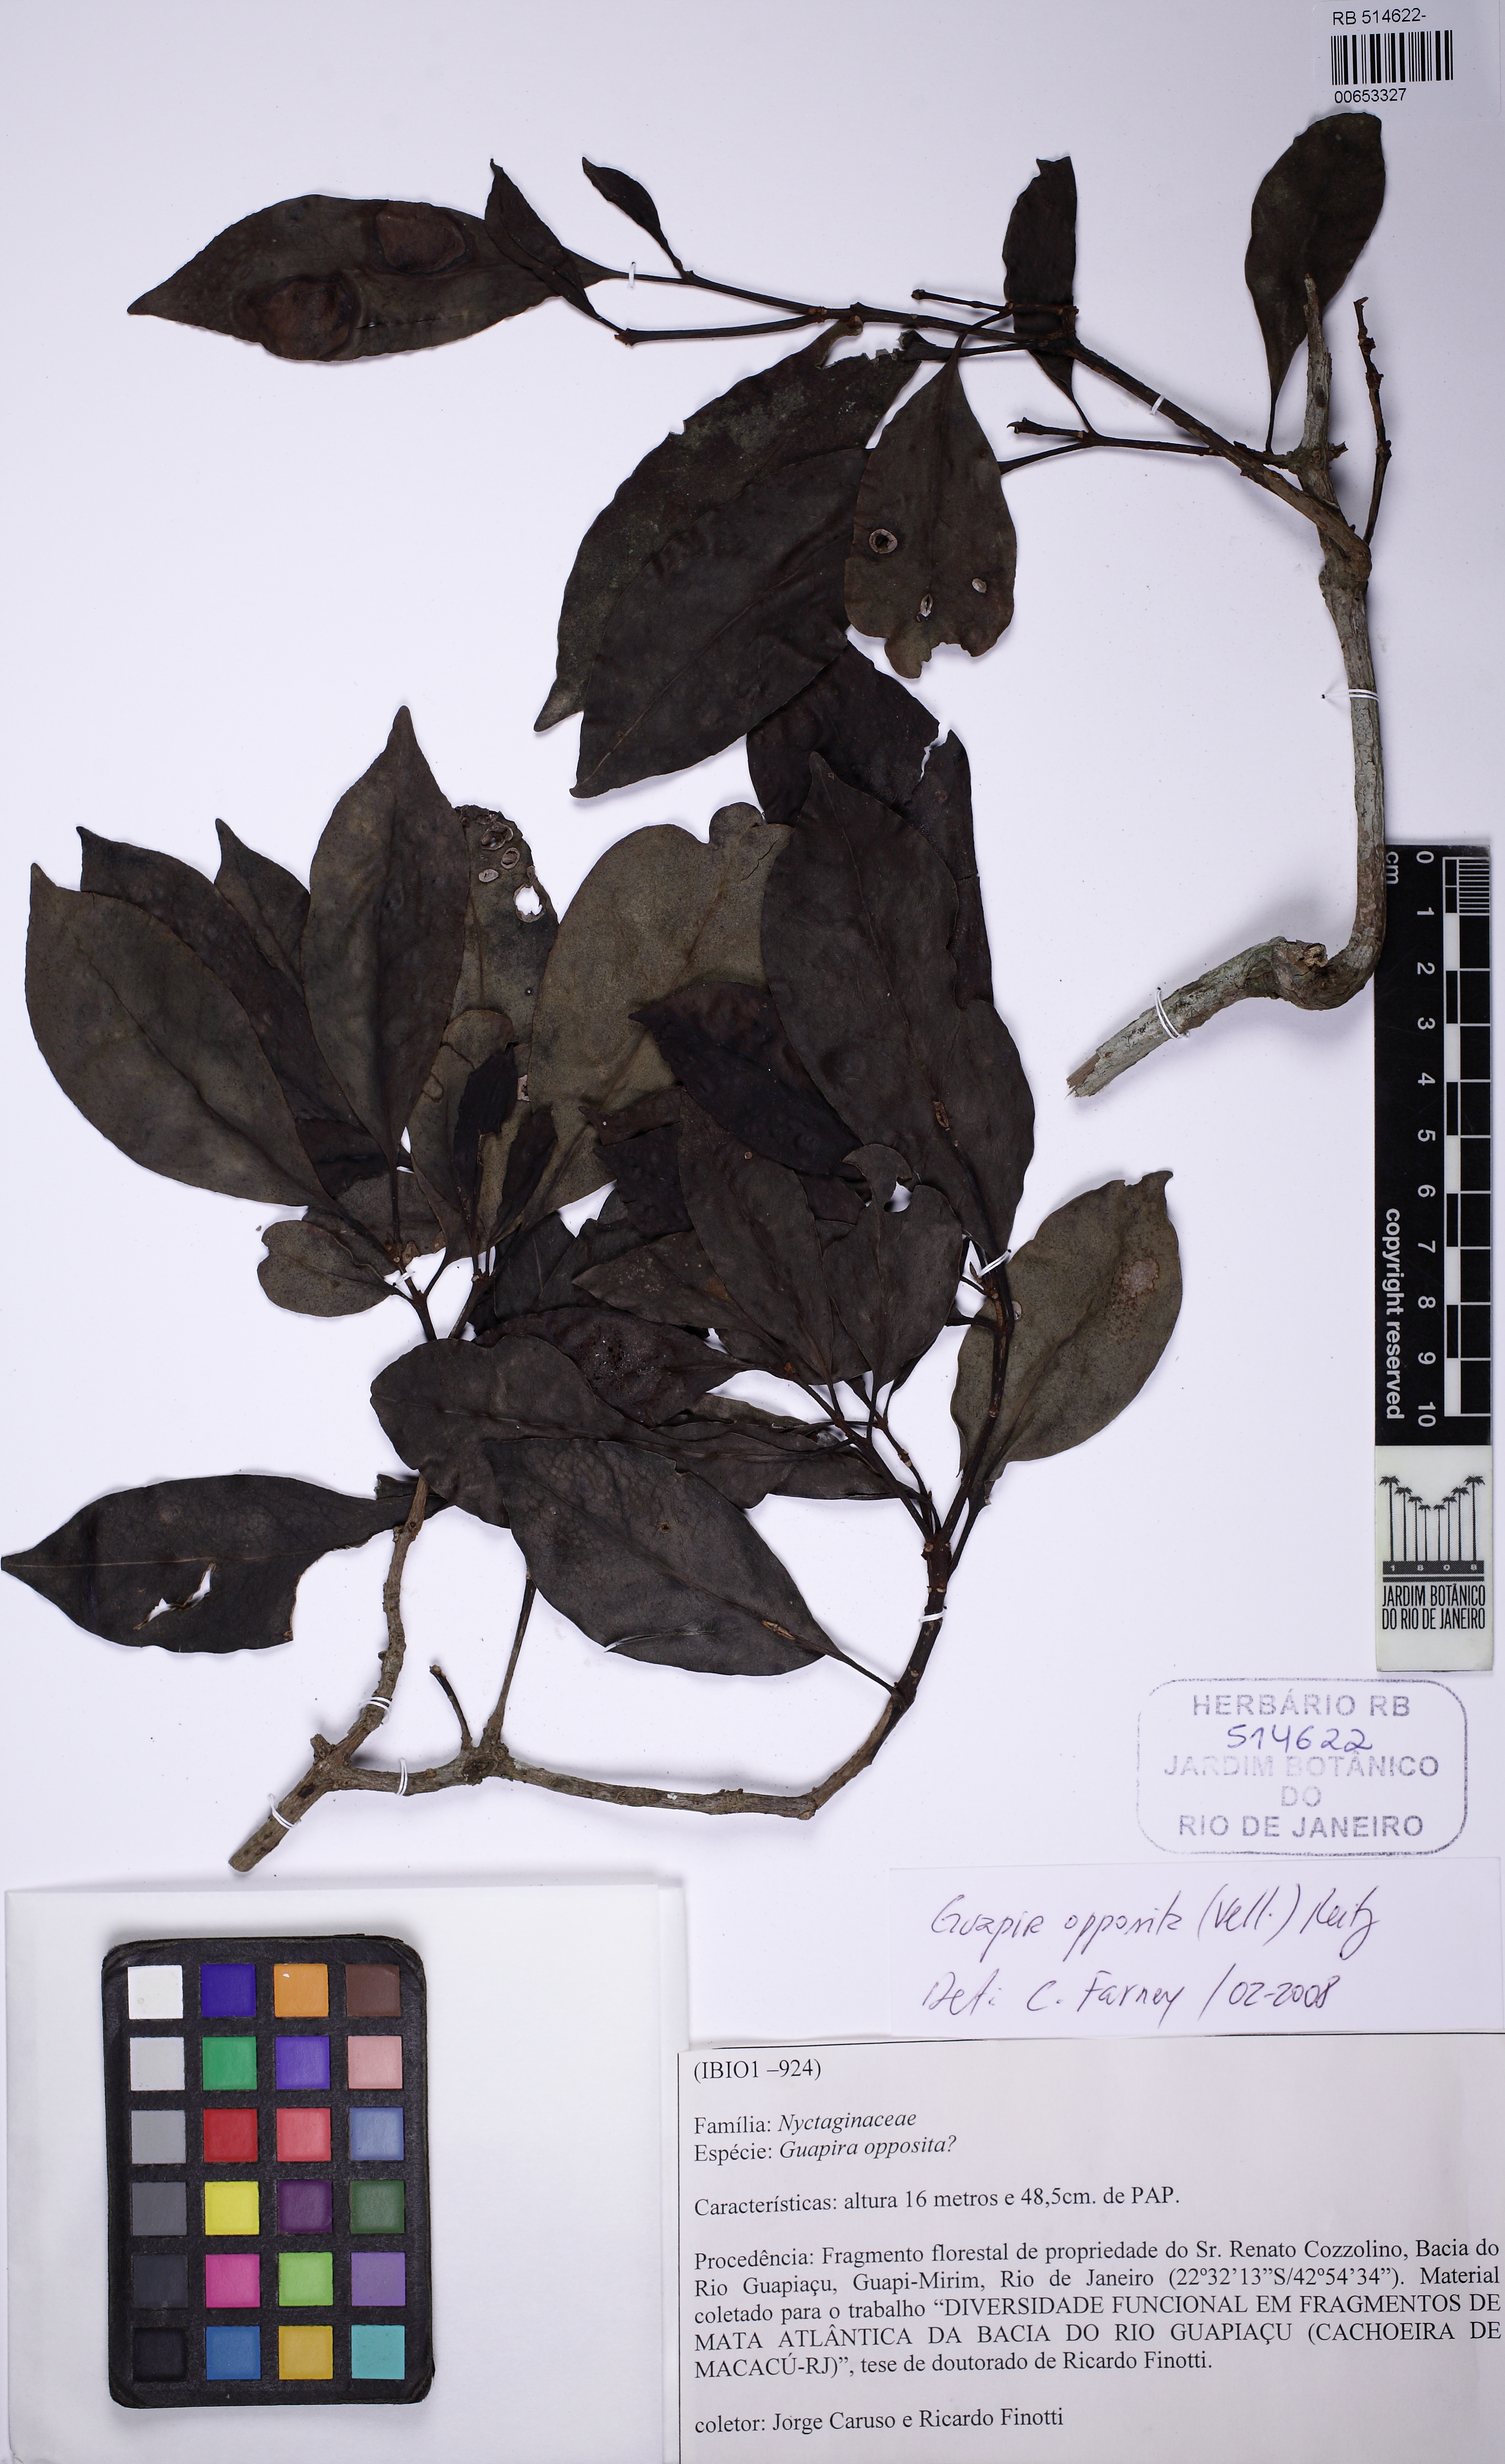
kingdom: Plantae
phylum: Tracheophyta
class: Magnoliopsida
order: Caryophyllales
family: Nyctaginaceae
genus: Guapira
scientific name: Guapira opposita
